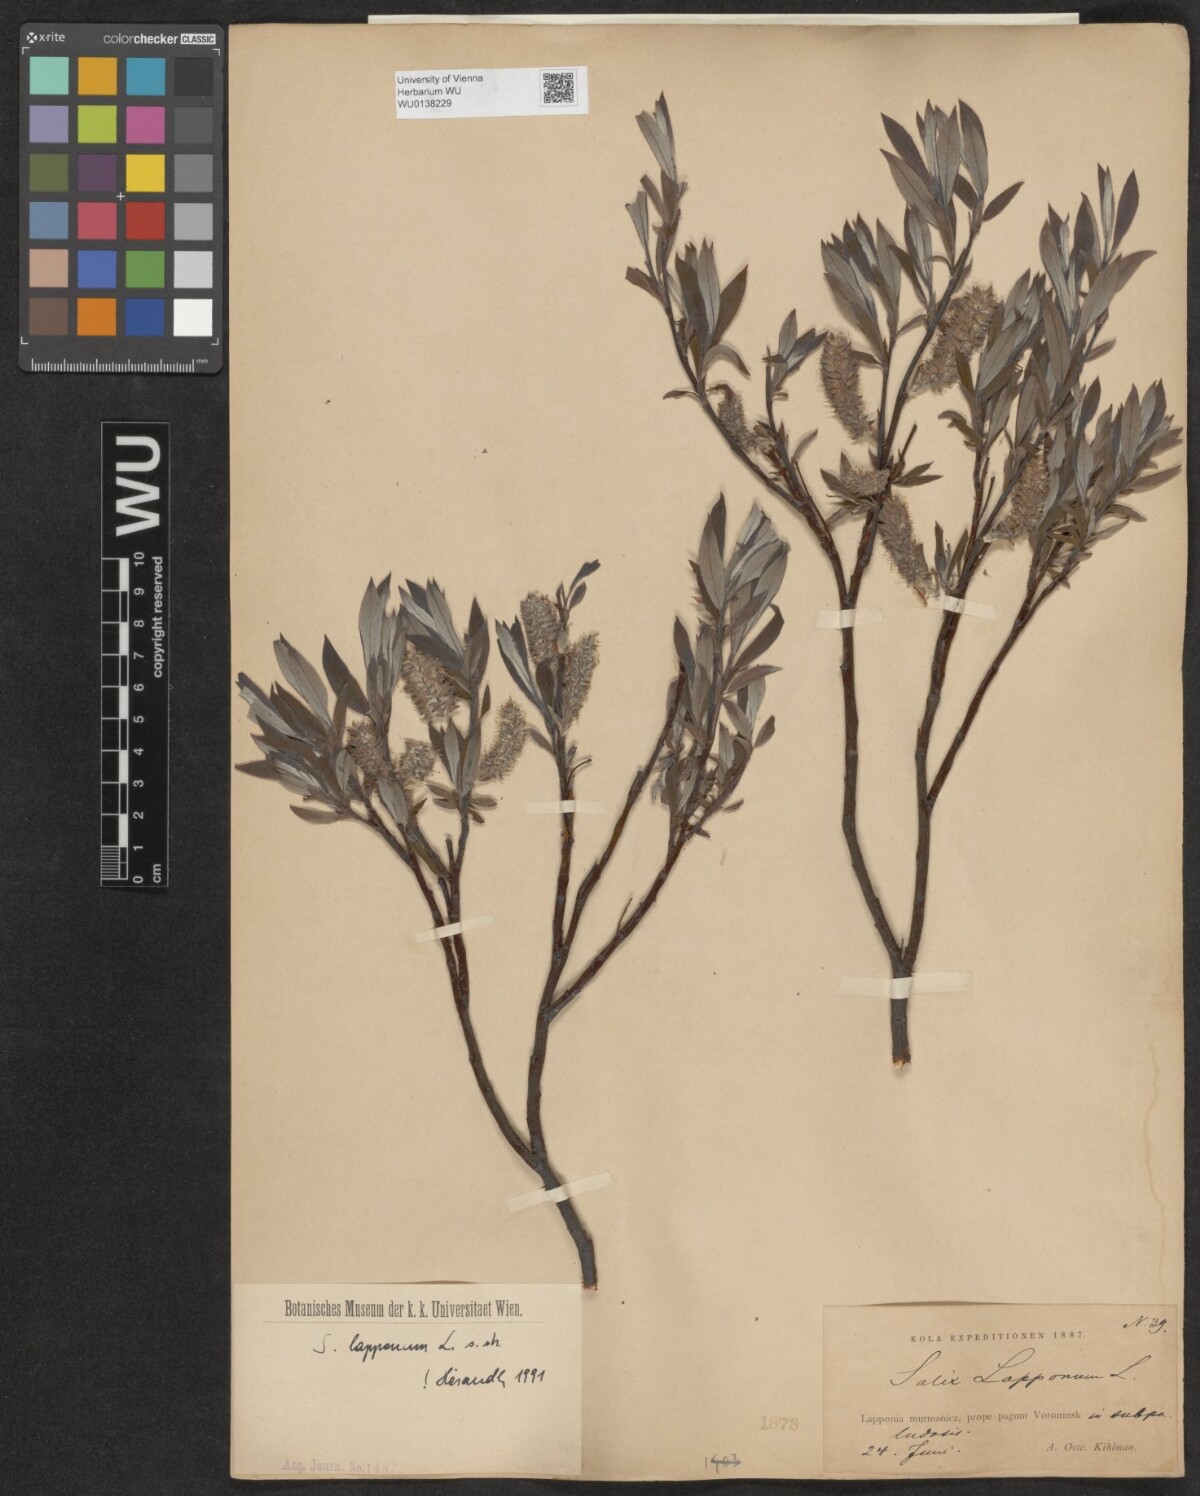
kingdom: Plantae
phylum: Tracheophyta
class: Magnoliopsida
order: Malpighiales
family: Salicaceae
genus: Salix
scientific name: Salix lapponum
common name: Downy willow
